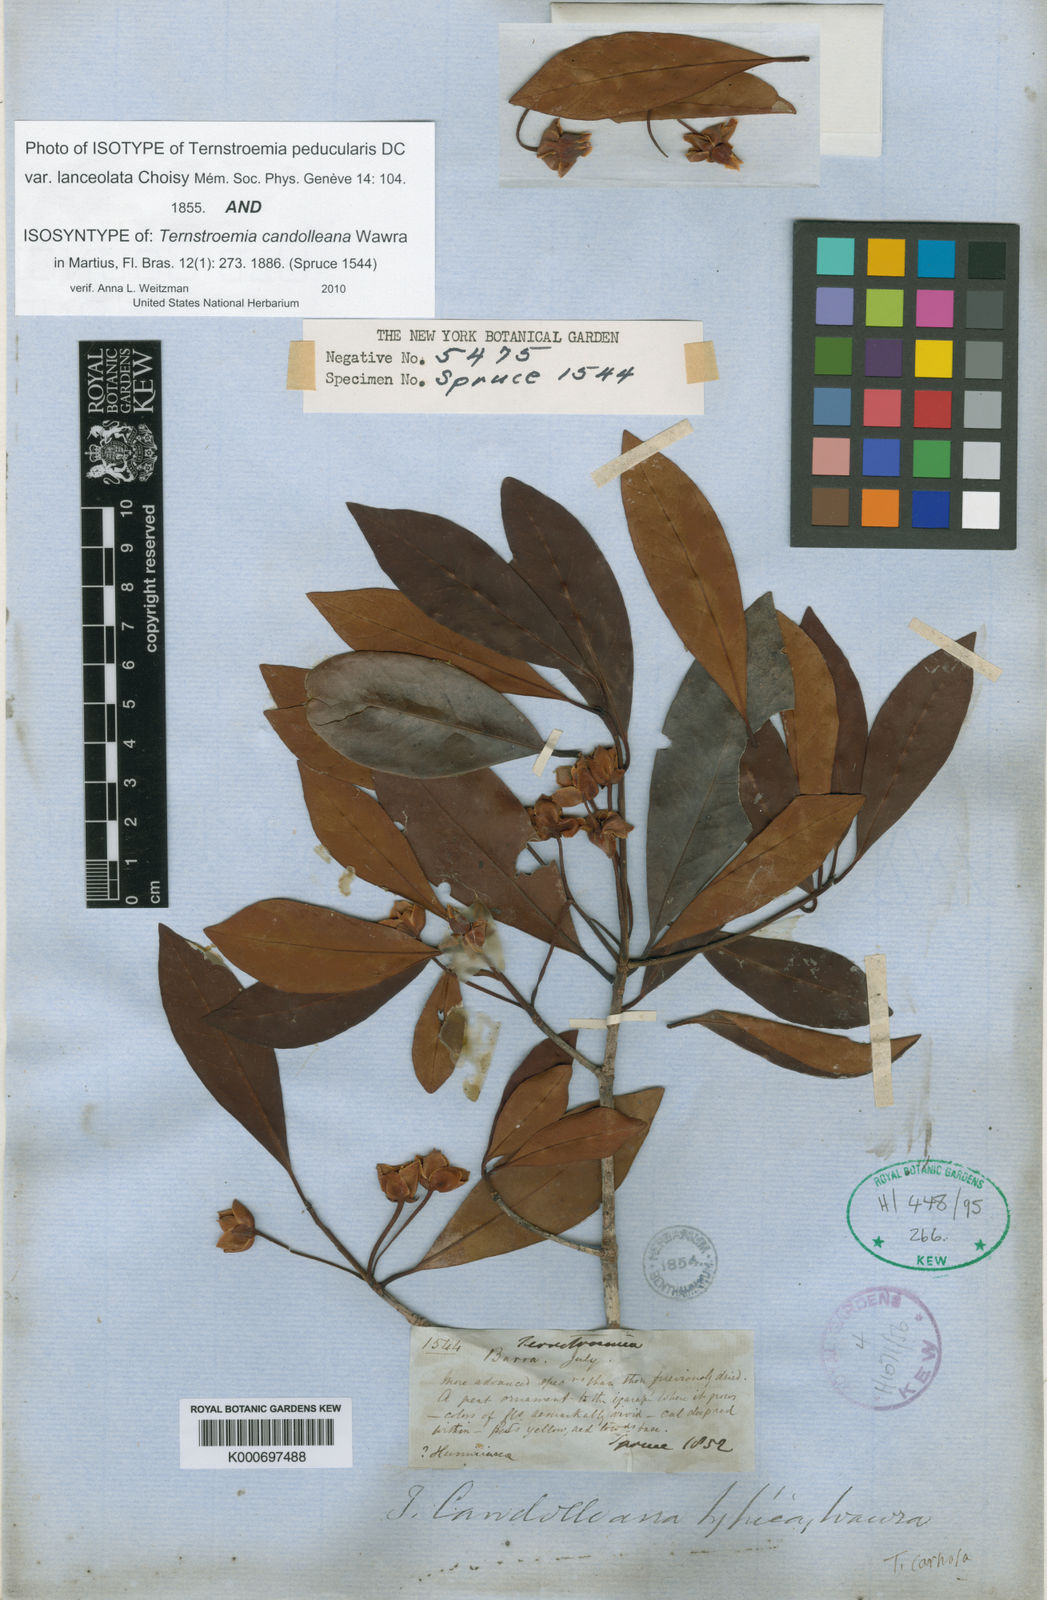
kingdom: Plantae
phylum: Tracheophyta
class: Magnoliopsida
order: Ericales
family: Pentaphylacaceae
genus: Ternstroemia
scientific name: Ternstroemia candolleana
